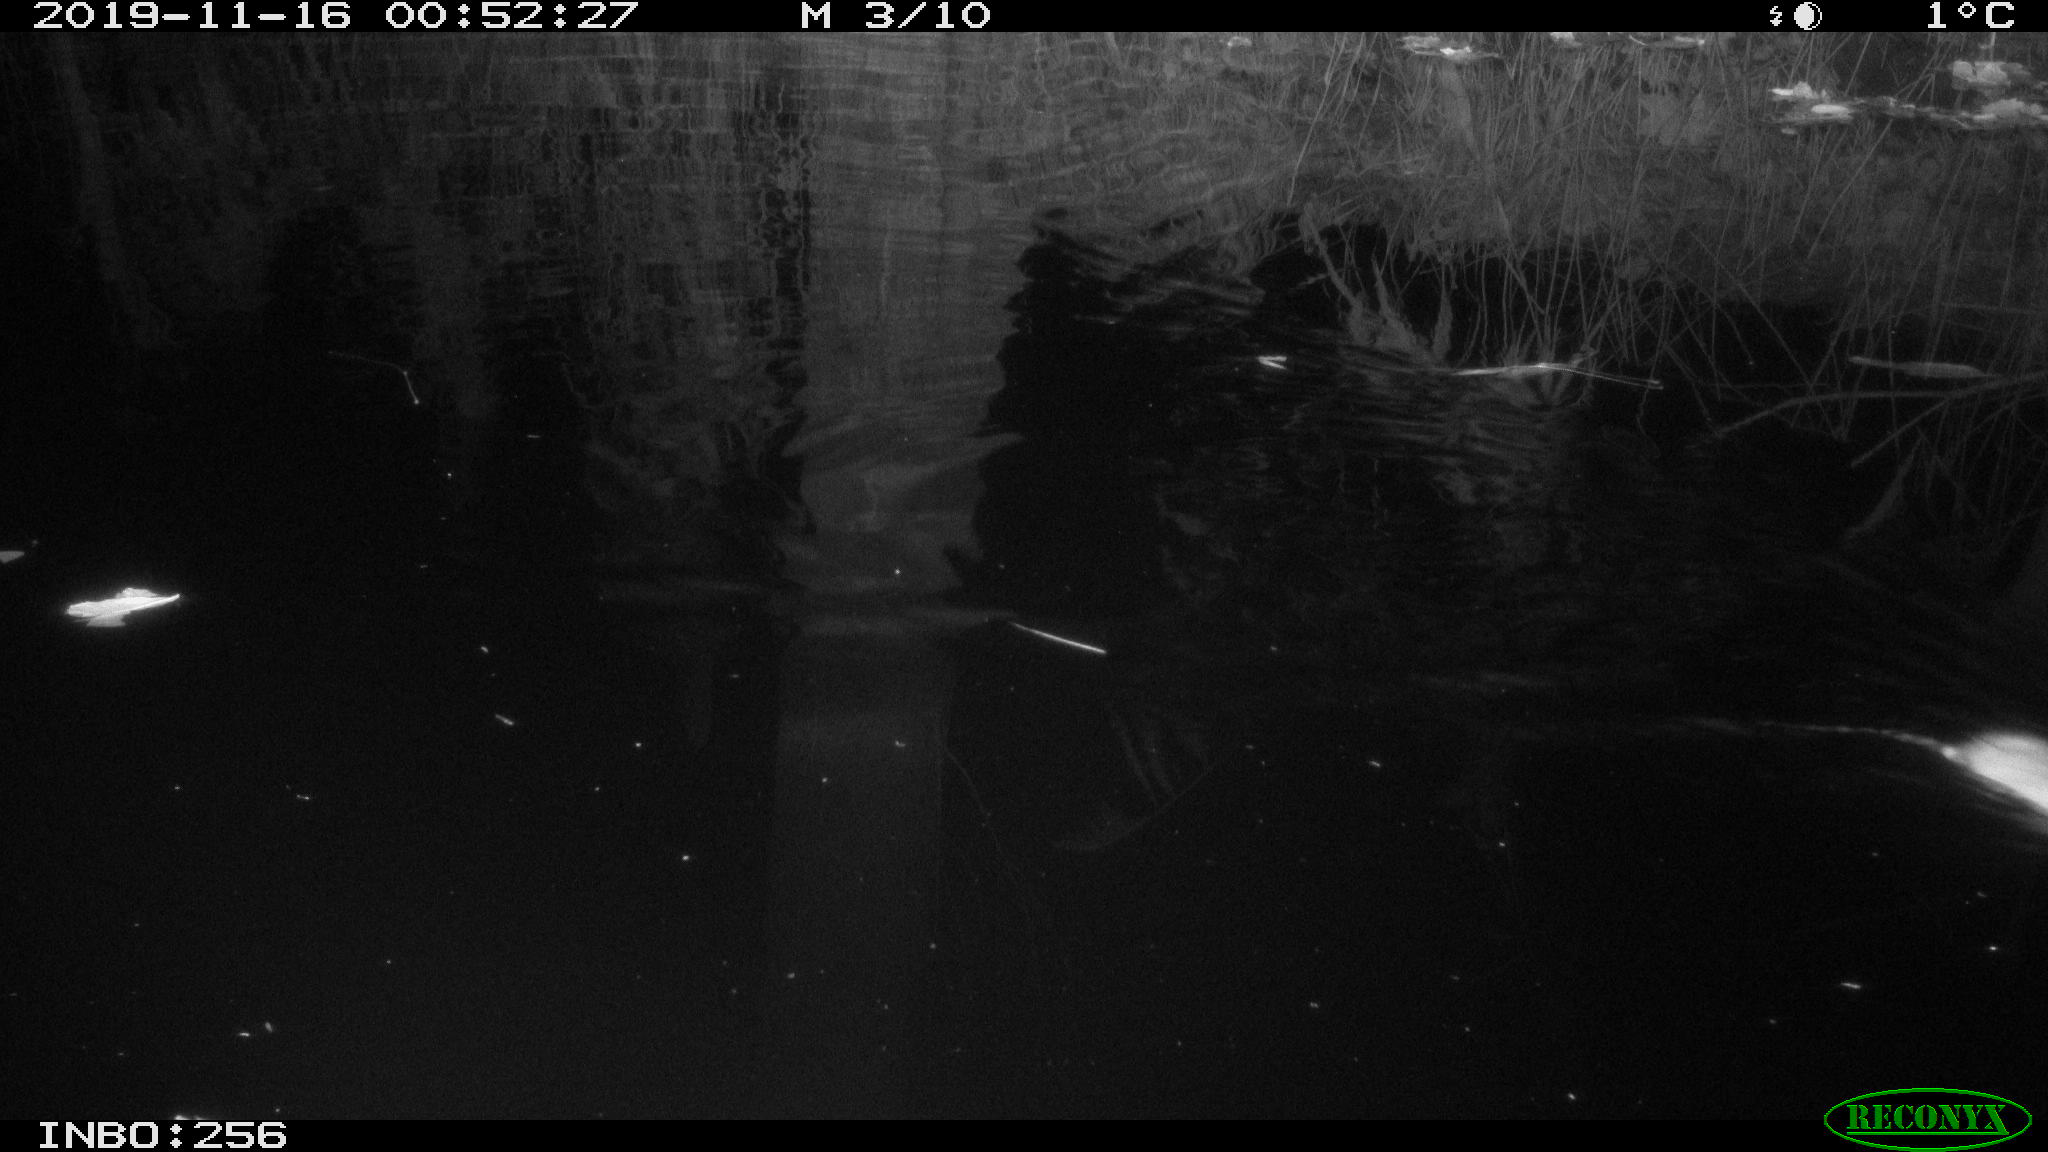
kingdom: Animalia
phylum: Chordata
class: Mammalia
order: Rodentia
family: Muridae
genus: Rattus
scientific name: Rattus norvegicus
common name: Brown rat
